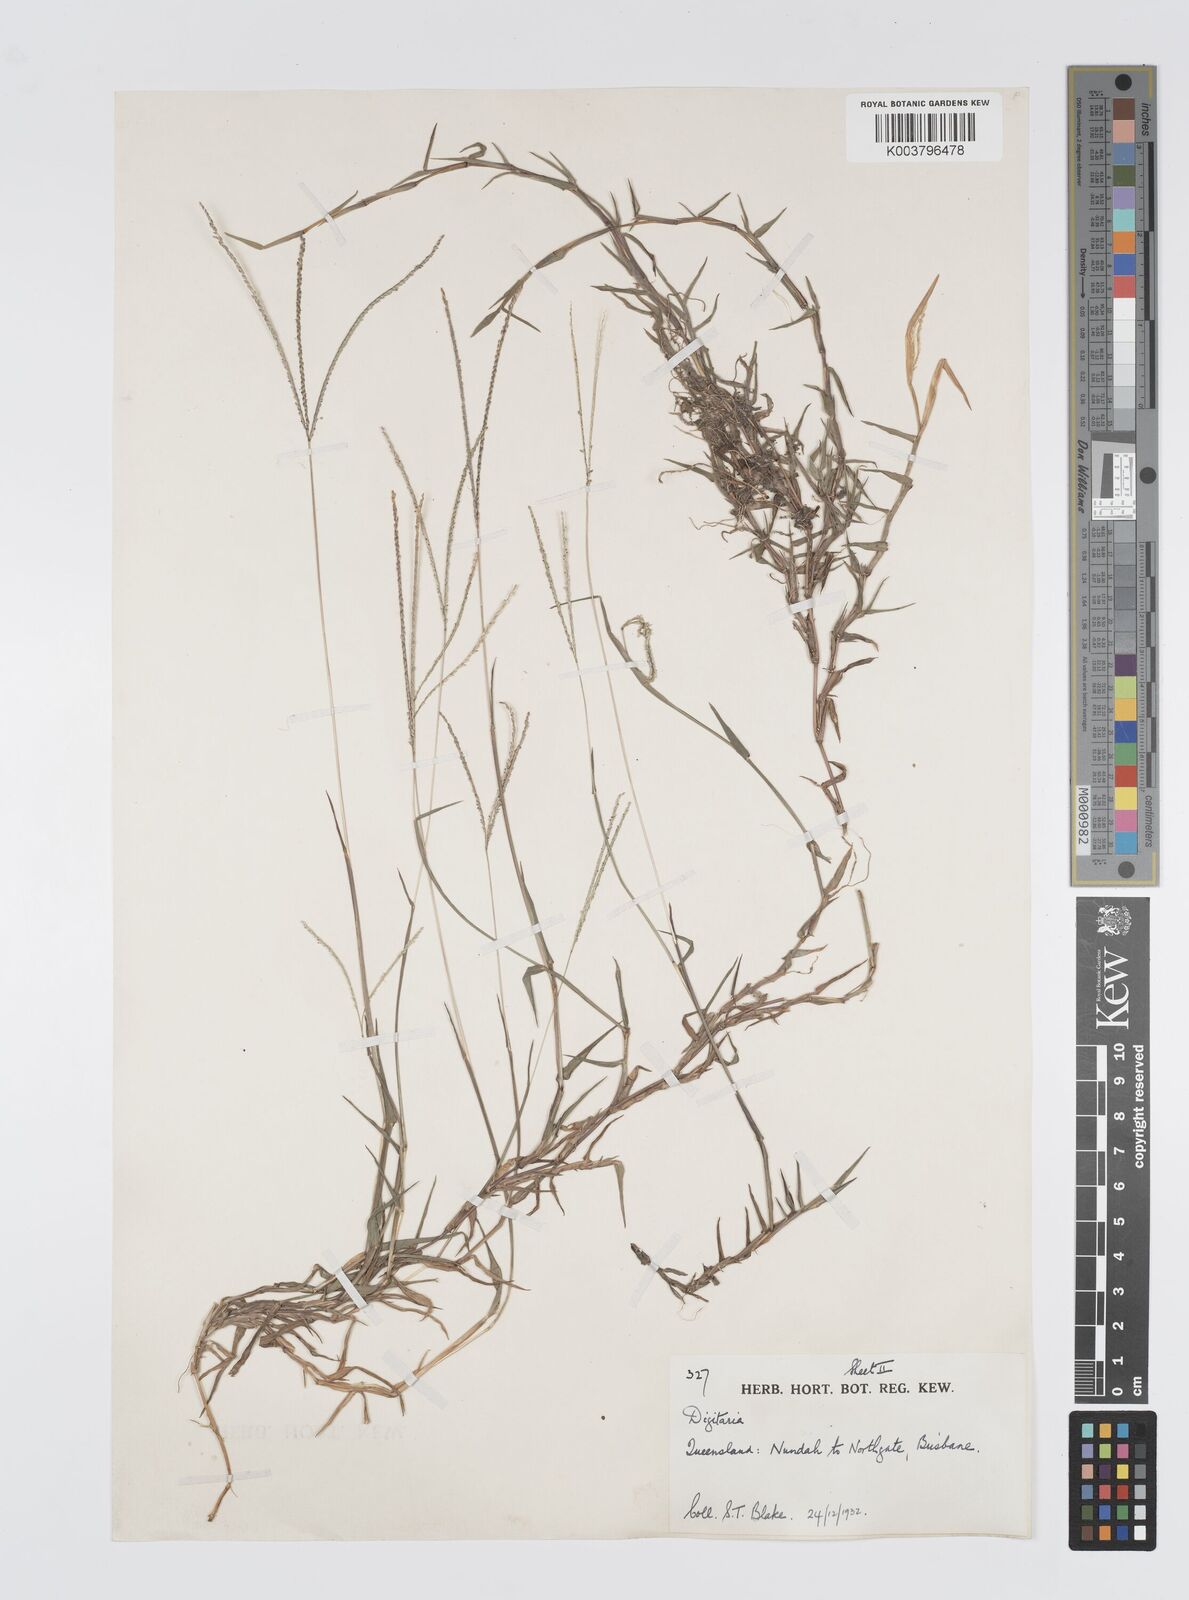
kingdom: Plantae
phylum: Tracheophyta
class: Liliopsida
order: Poales
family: Poaceae
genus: Digitaria
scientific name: Digitaria longiflora
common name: Wire crabgrass
